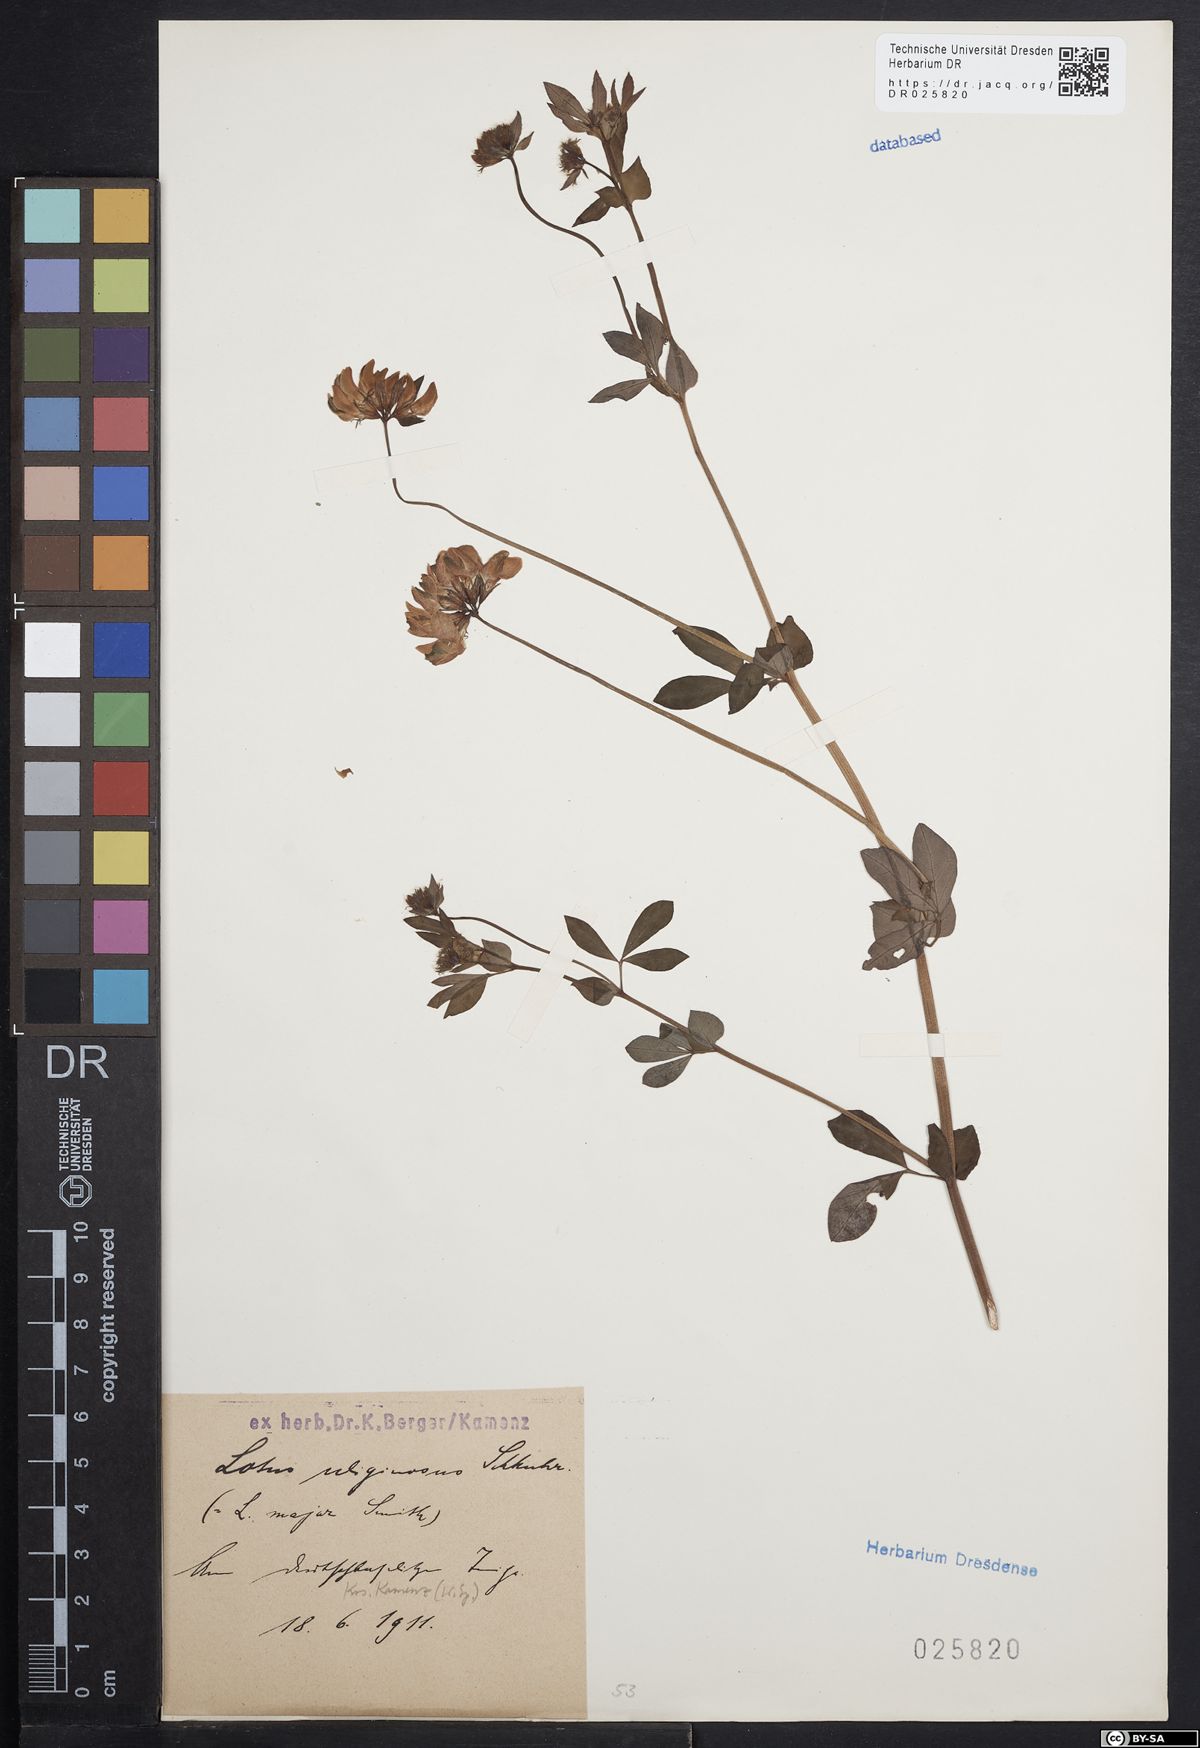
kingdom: Plantae
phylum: Tracheophyta
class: Magnoliopsida
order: Fabales
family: Fabaceae
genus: Lotus
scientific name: Lotus pedunculatus
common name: Greater birdsfoot-trefoil
